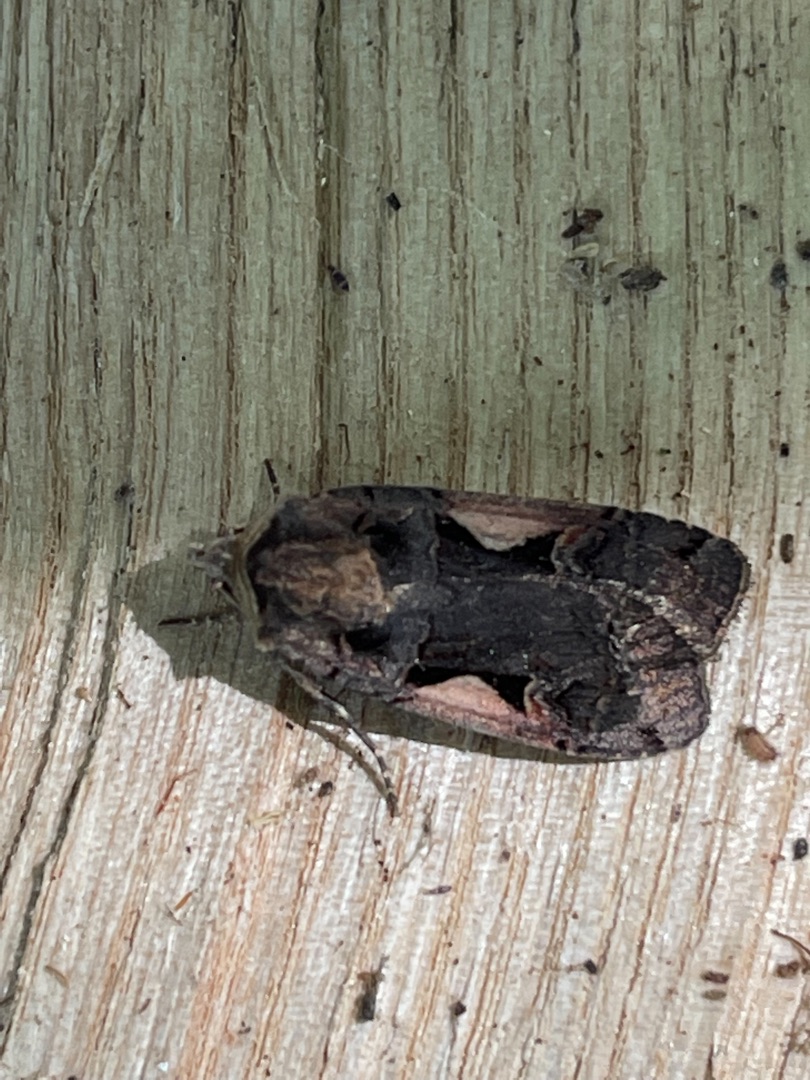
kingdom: Animalia
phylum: Arthropoda
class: Insecta
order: Lepidoptera
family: Noctuidae
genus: Xestia
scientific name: Xestia c-nigrum
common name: Det sorte c
